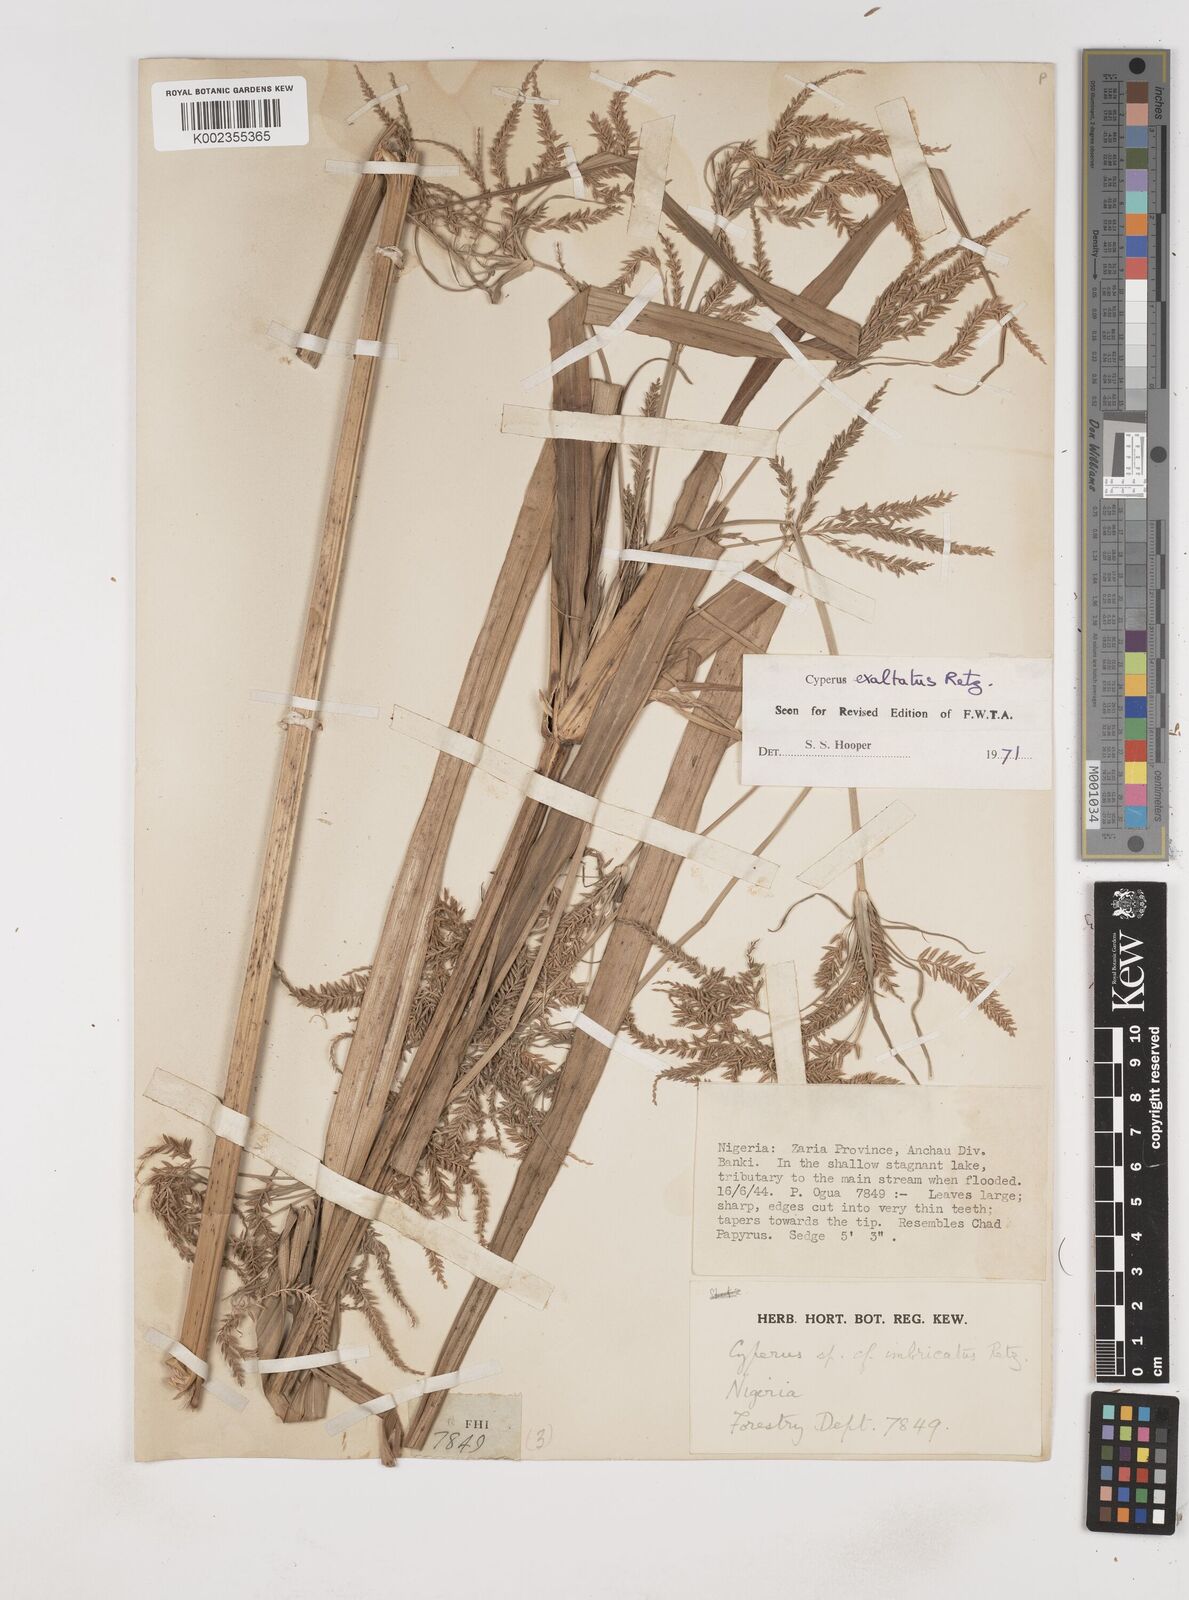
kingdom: Plantae
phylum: Tracheophyta
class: Liliopsida
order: Poales
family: Cyperaceae
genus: Cyperus
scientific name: Cyperus exaltatus
